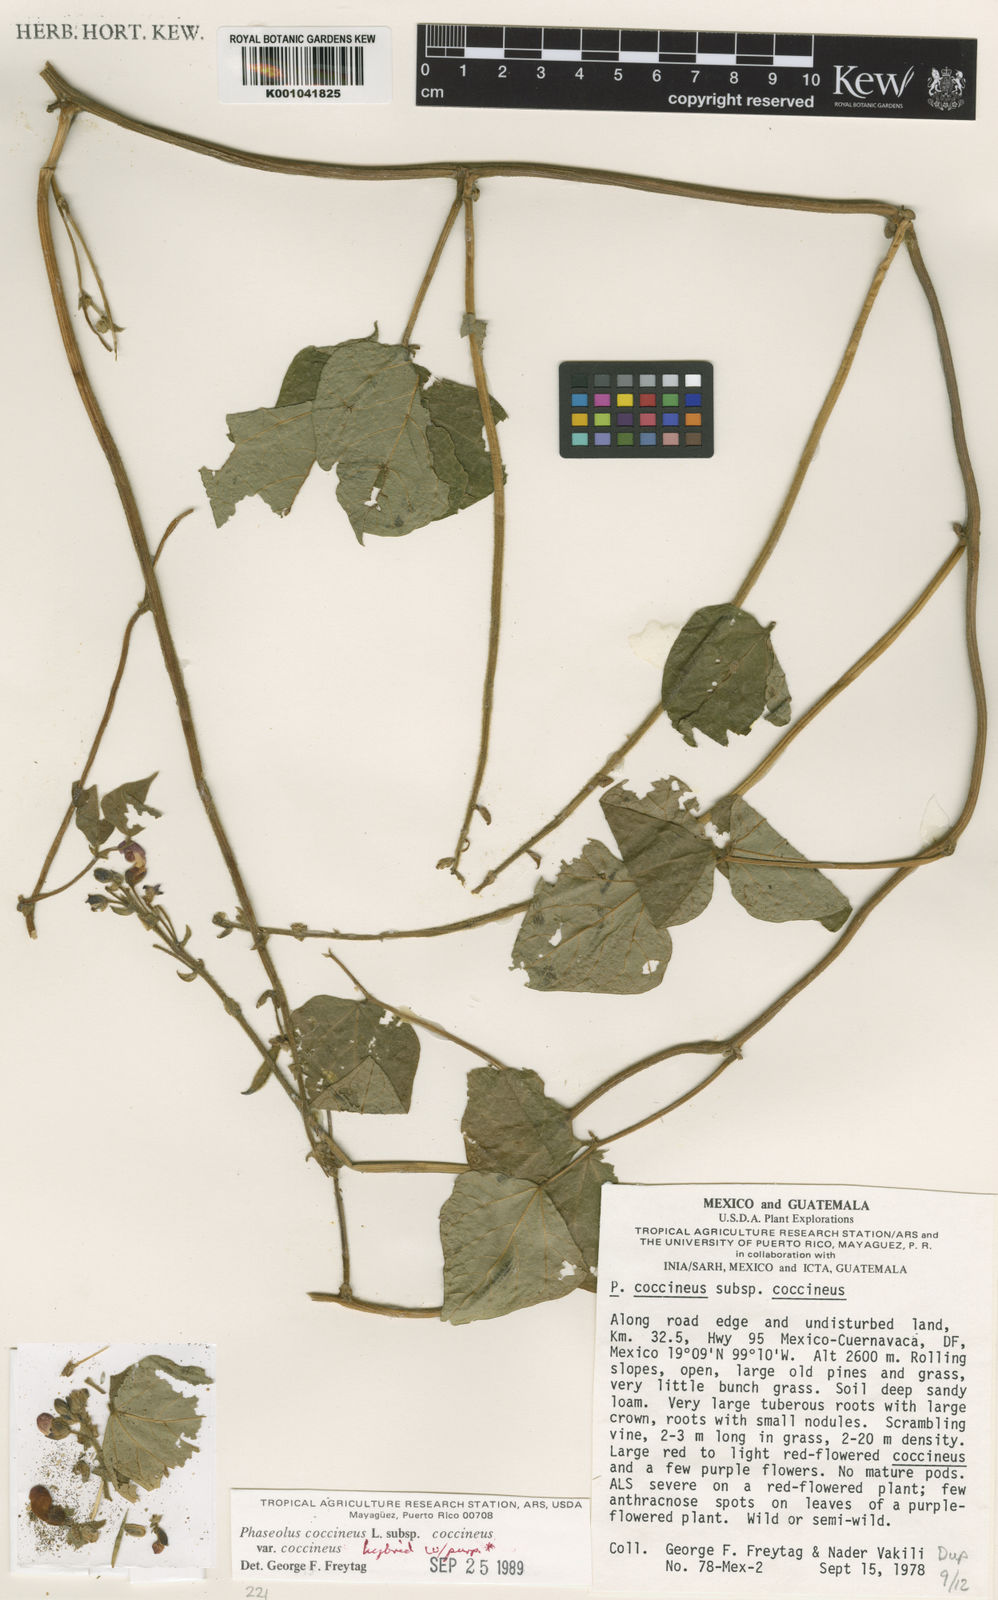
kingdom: Plantae
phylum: Tracheophyta
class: Magnoliopsida
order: Fabales
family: Fabaceae
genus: Phaseolus
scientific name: Phaseolus
